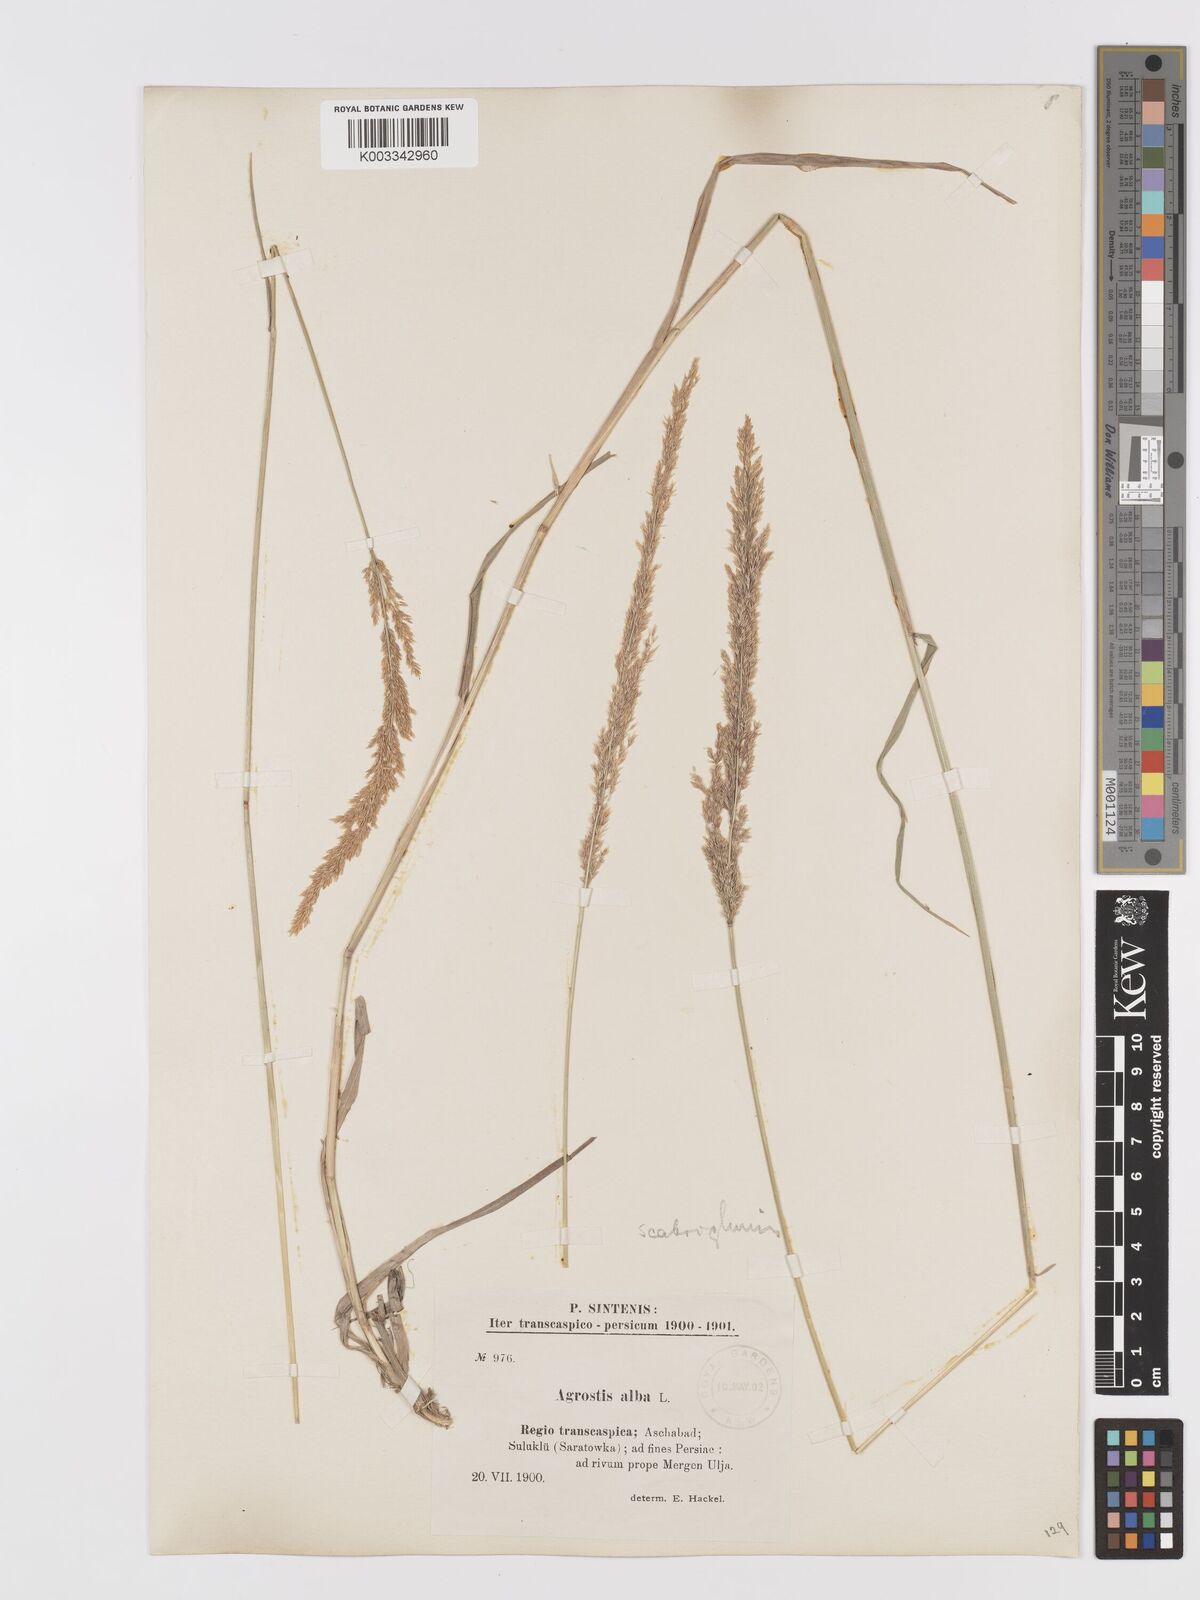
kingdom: Plantae
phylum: Tracheophyta
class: Liliopsida
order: Poales
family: Poaceae
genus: Agrostis
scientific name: Agrostis stolonifera
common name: Creeping bentgrass
